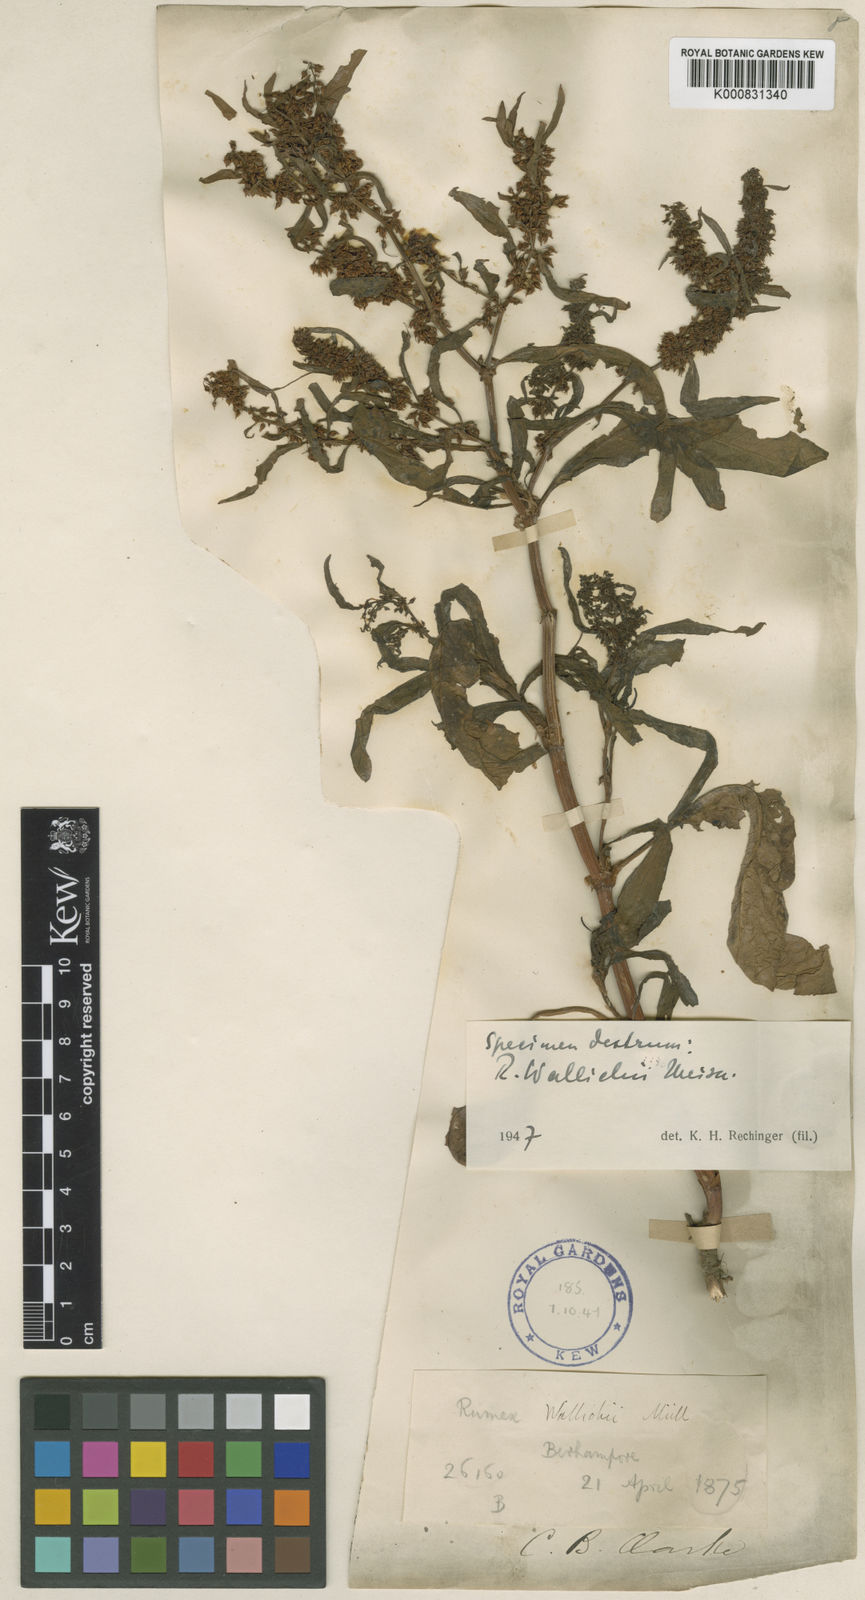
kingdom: Plantae
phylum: Tracheophyta
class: Magnoliopsida
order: Caryophyllales
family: Polygonaceae
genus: Rumex
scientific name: Rumex microcarpus
